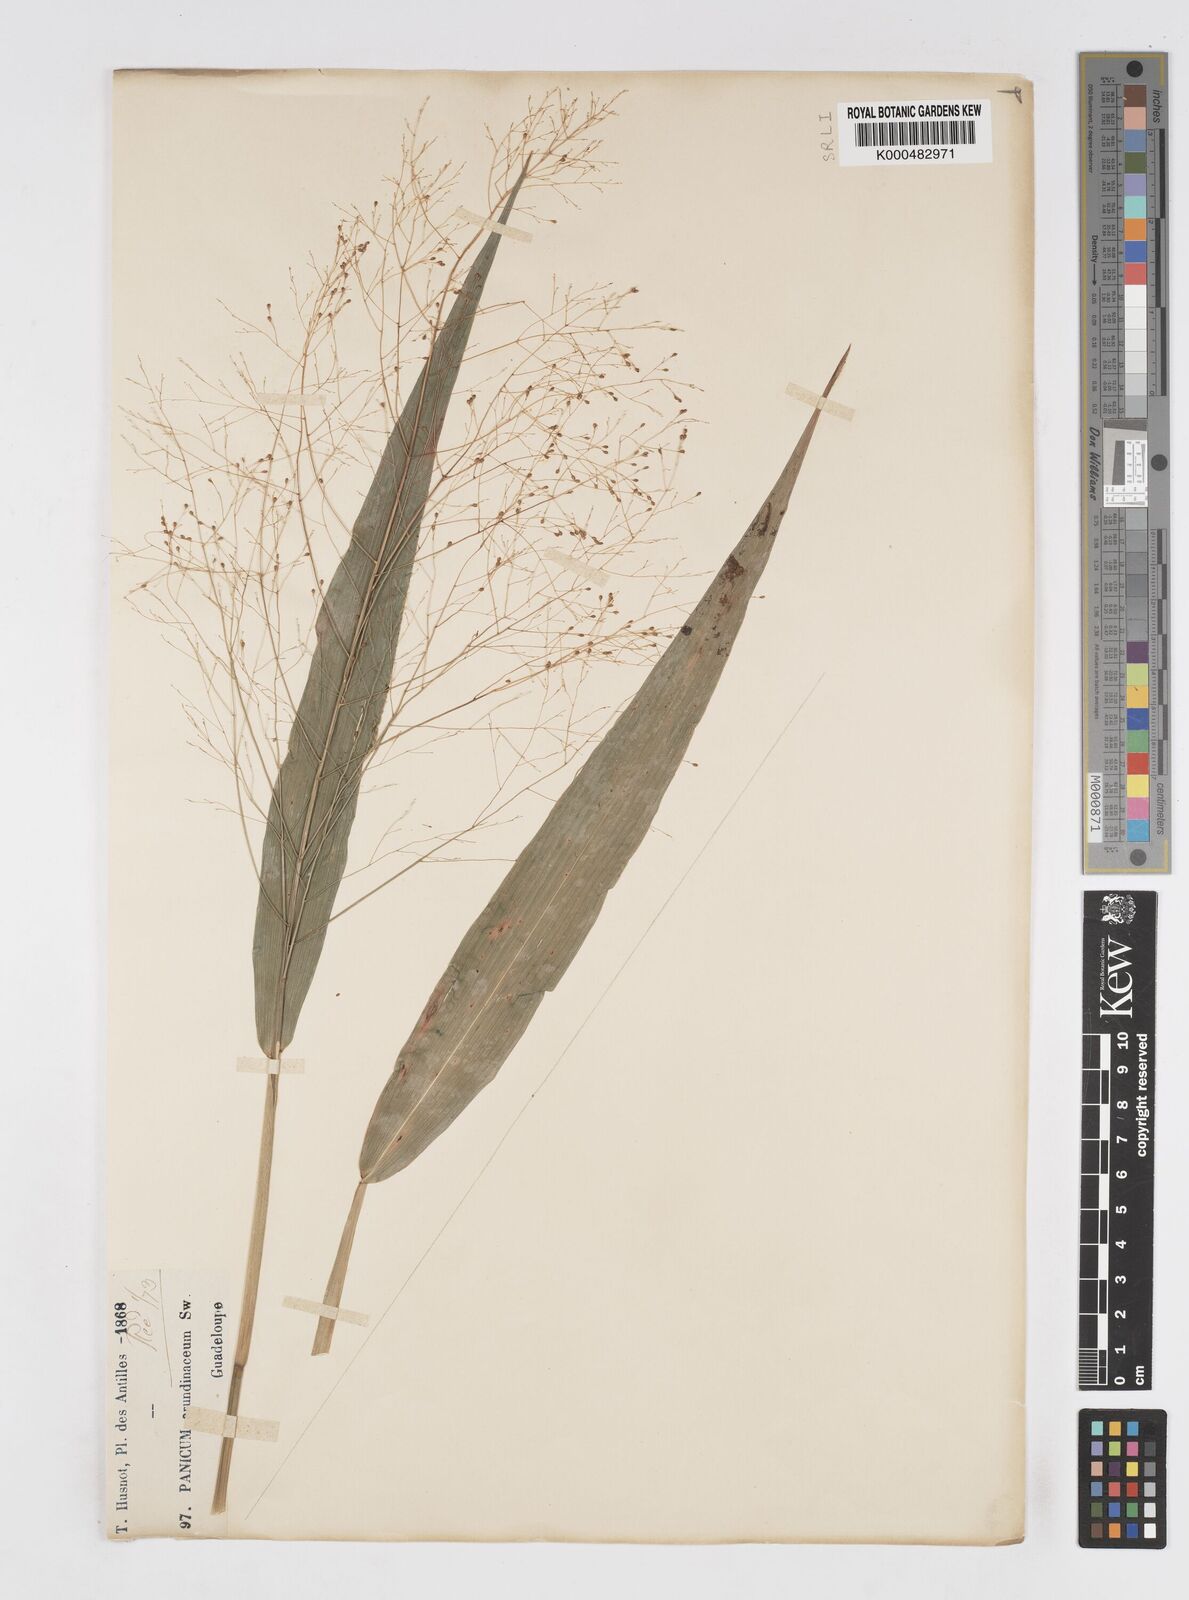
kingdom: Plantae
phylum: Tracheophyta
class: Liliopsida
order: Poales
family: Poaceae
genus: Isachne
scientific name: Isachne
